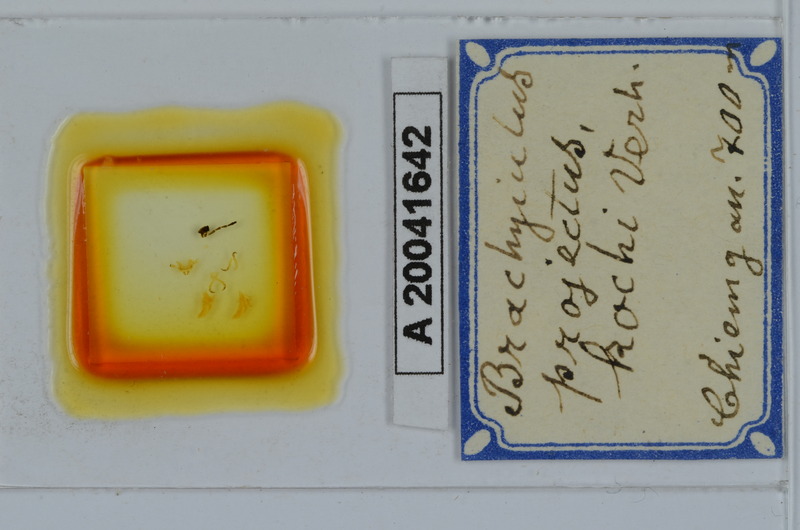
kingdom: Animalia
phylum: Arthropoda
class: Diplopoda
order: Julida
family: Julidae
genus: Megaphyllum
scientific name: Megaphyllum projectum
